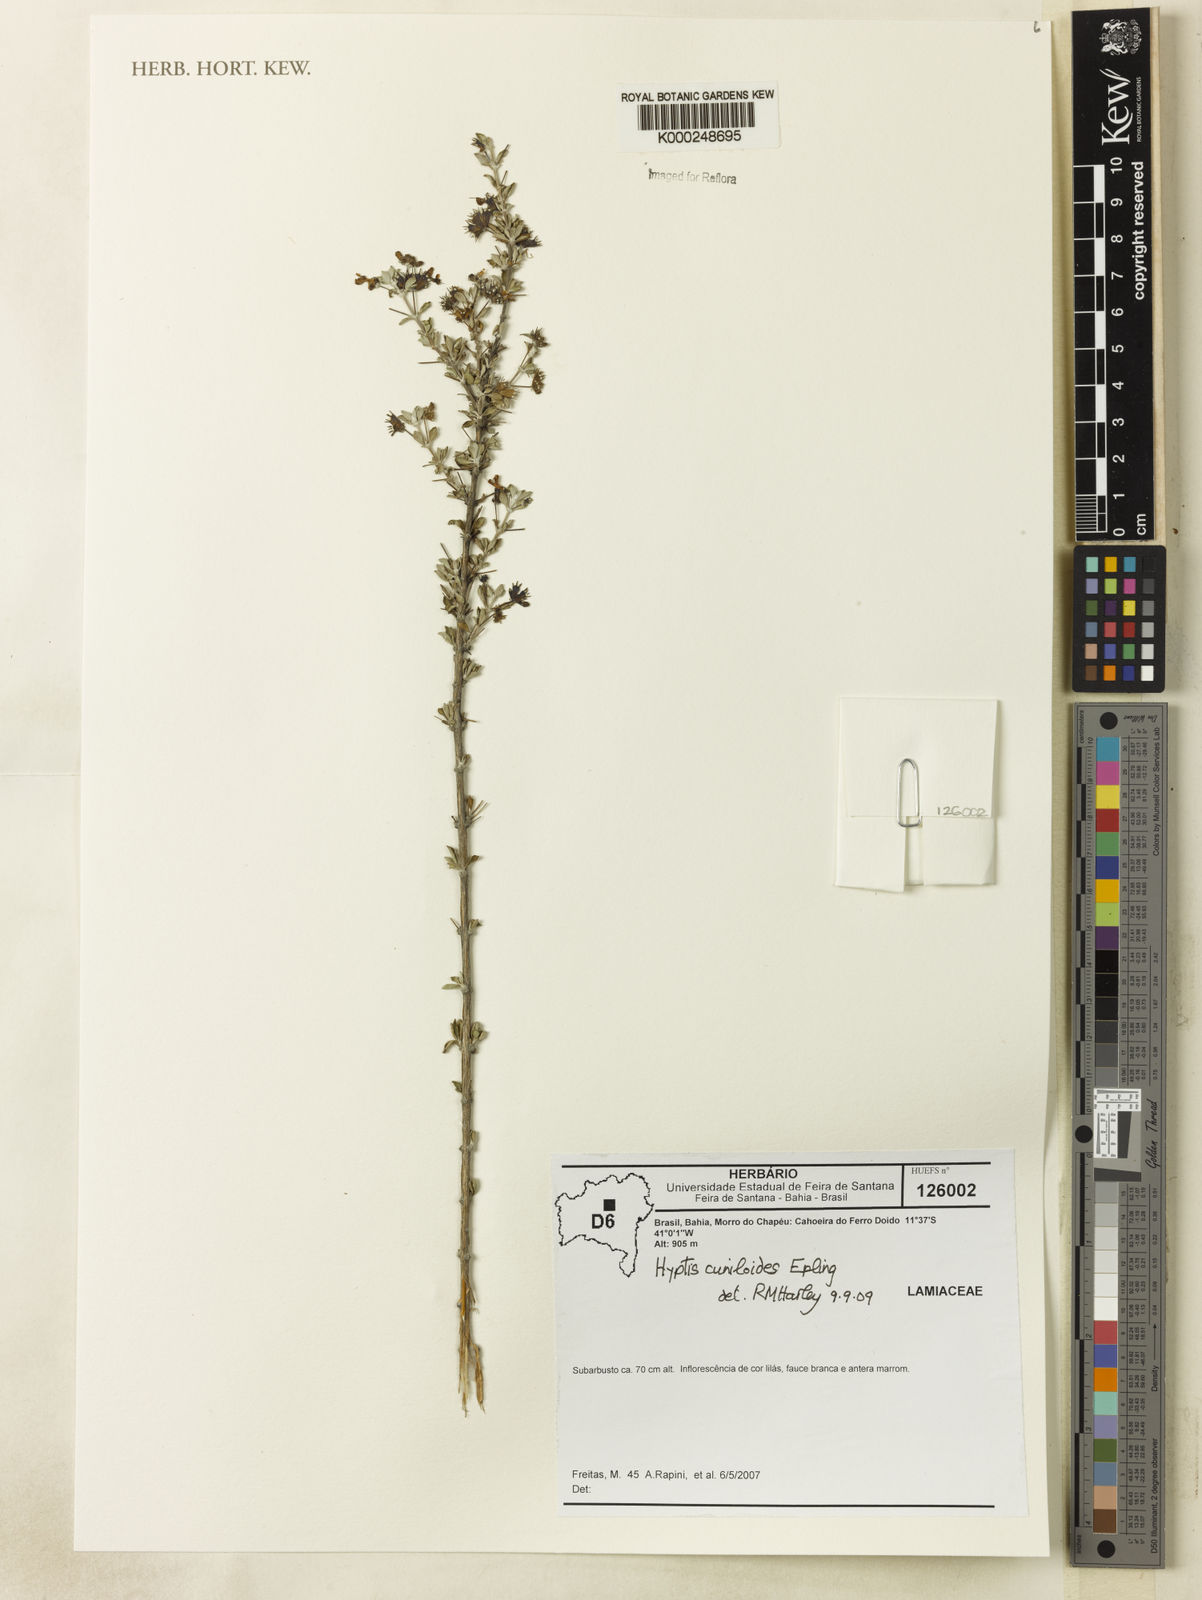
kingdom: Plantae
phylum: Tracheophyta
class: Magnoliopsida
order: Lamiales
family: Lamiaceae
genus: Eplingiella
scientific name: Eplingiella cuniloides
